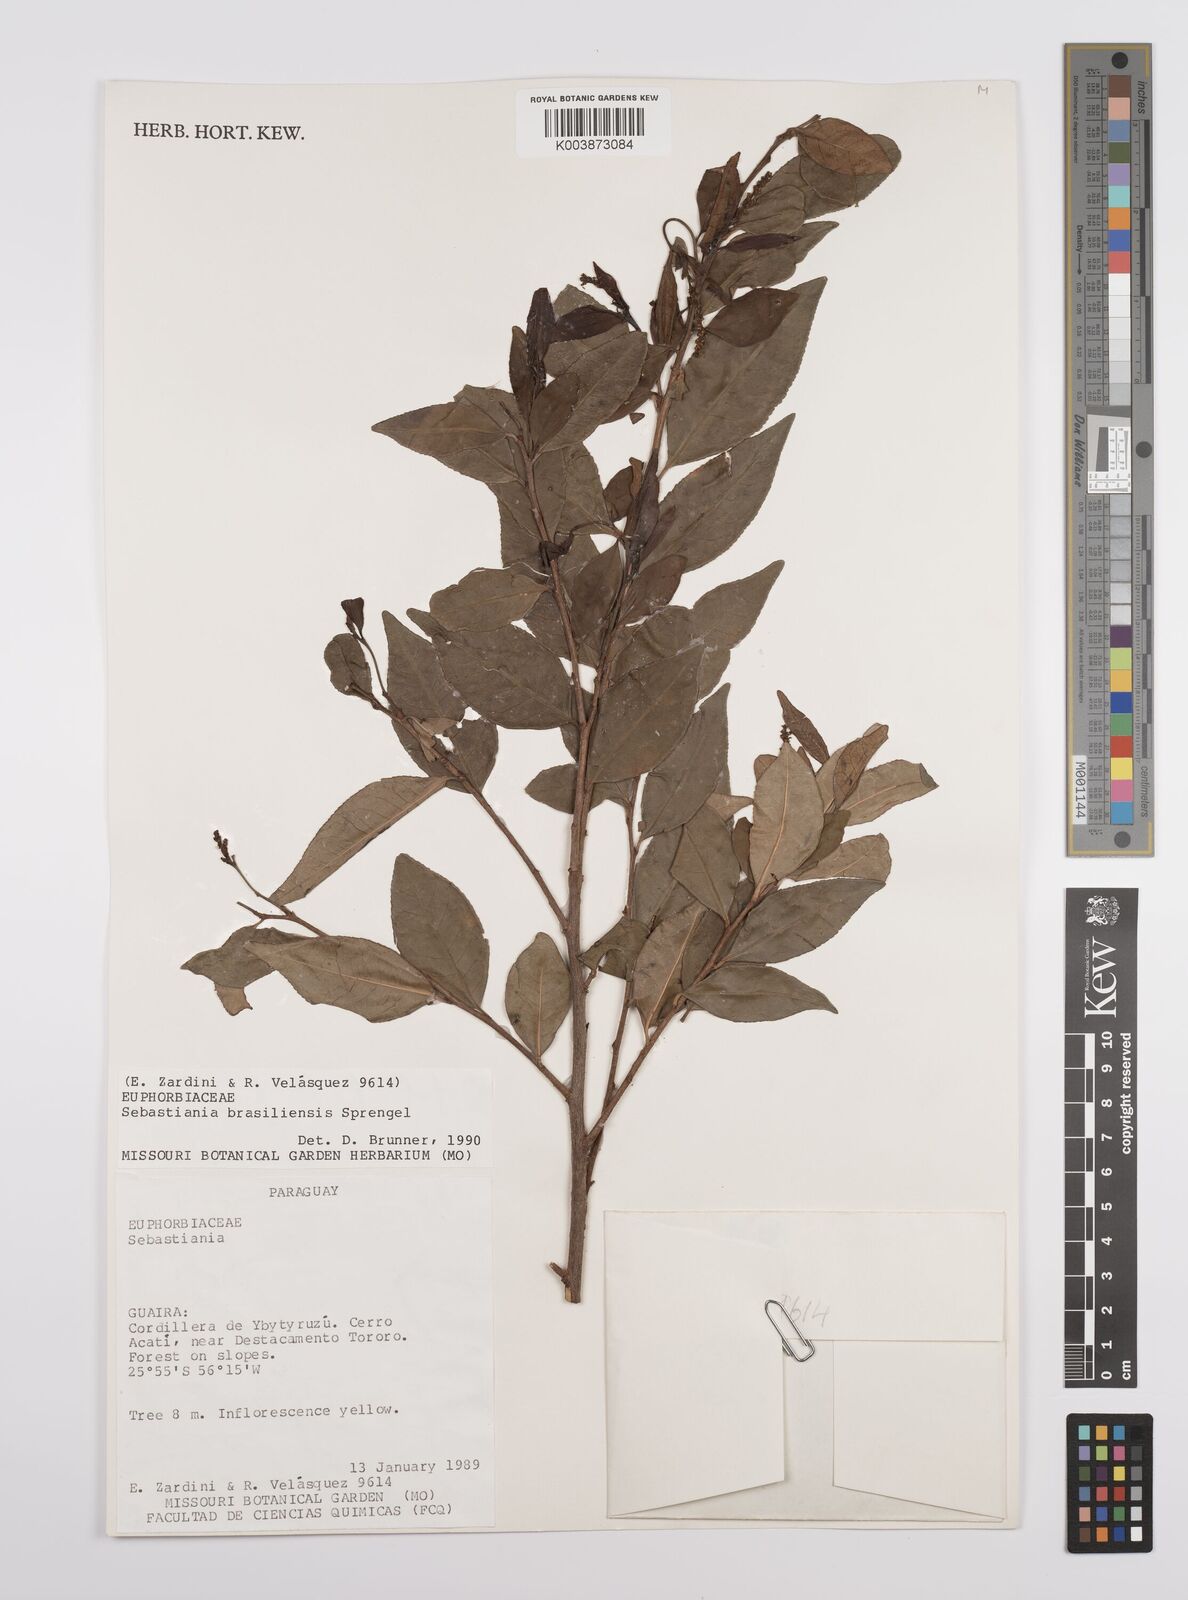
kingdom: Plantae
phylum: Tracheophyta
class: Magnoliopsida
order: Malpighiales
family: Euphorbiaceae
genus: Sebastiania
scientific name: Sebastiania brasiliensis
